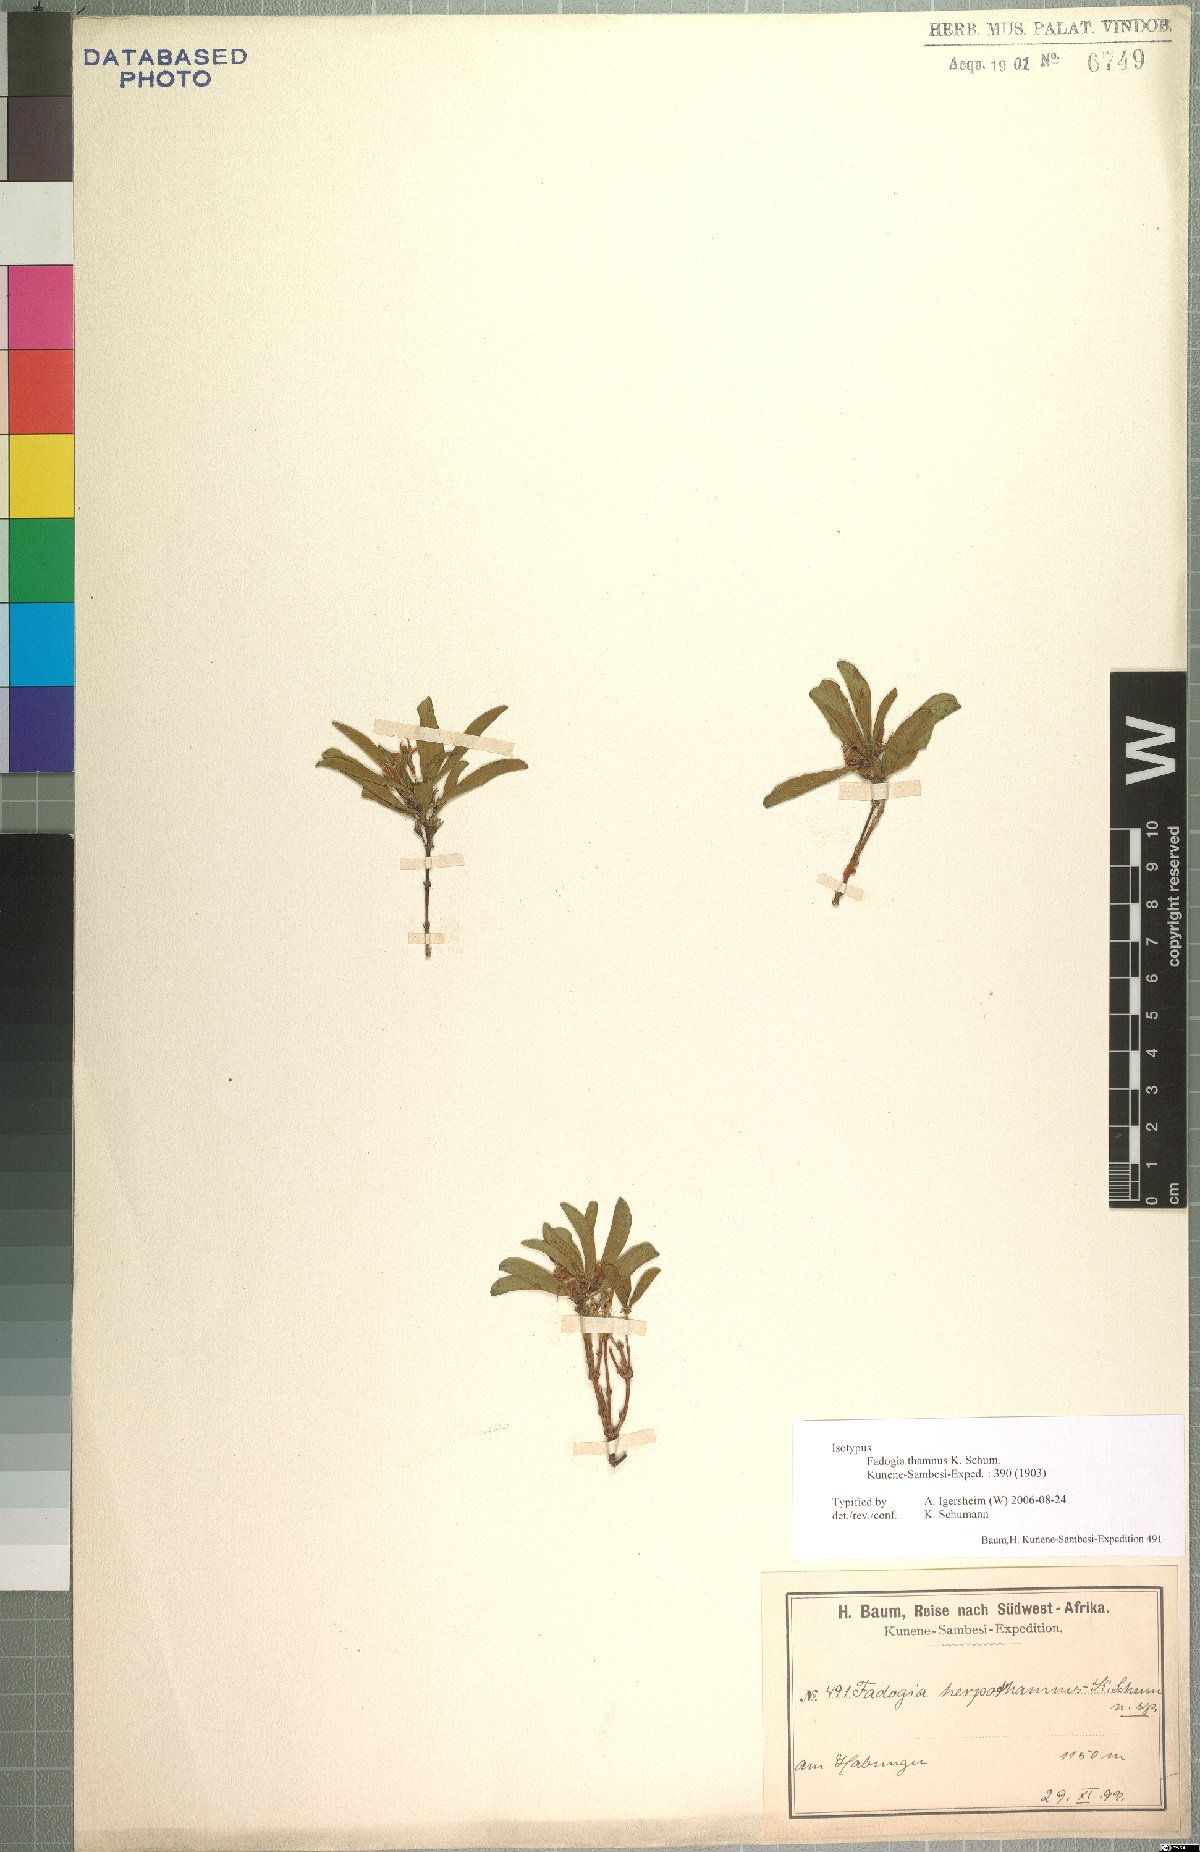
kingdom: Plantae
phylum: Tracheophyta
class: Magnoliopsida
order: Gentianales
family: Rubiaceae
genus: Fadogia
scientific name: Fadogia chlorantha
